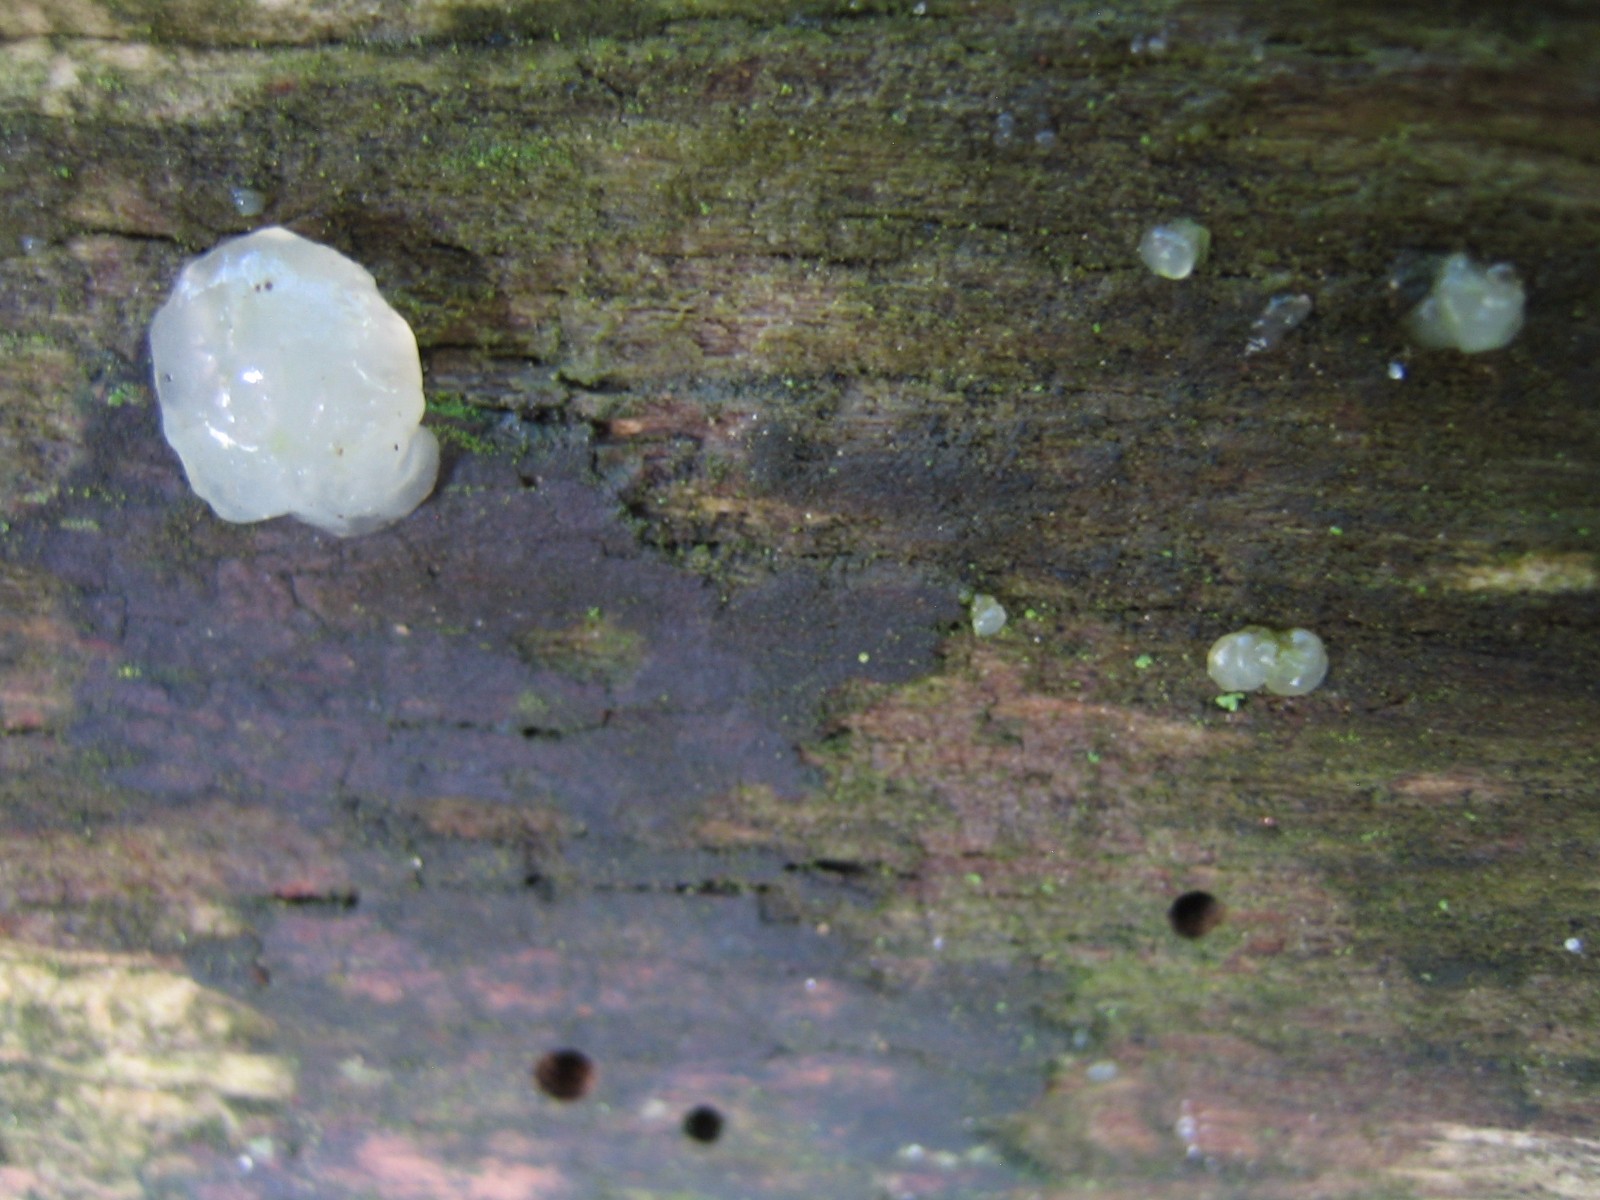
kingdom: Fungi
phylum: Basidiomycota
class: Agaricomycetes
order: Auriculariales
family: Hyaloriaceae
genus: Myxarium
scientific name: Myxarium nucleatum
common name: klar bævretop
